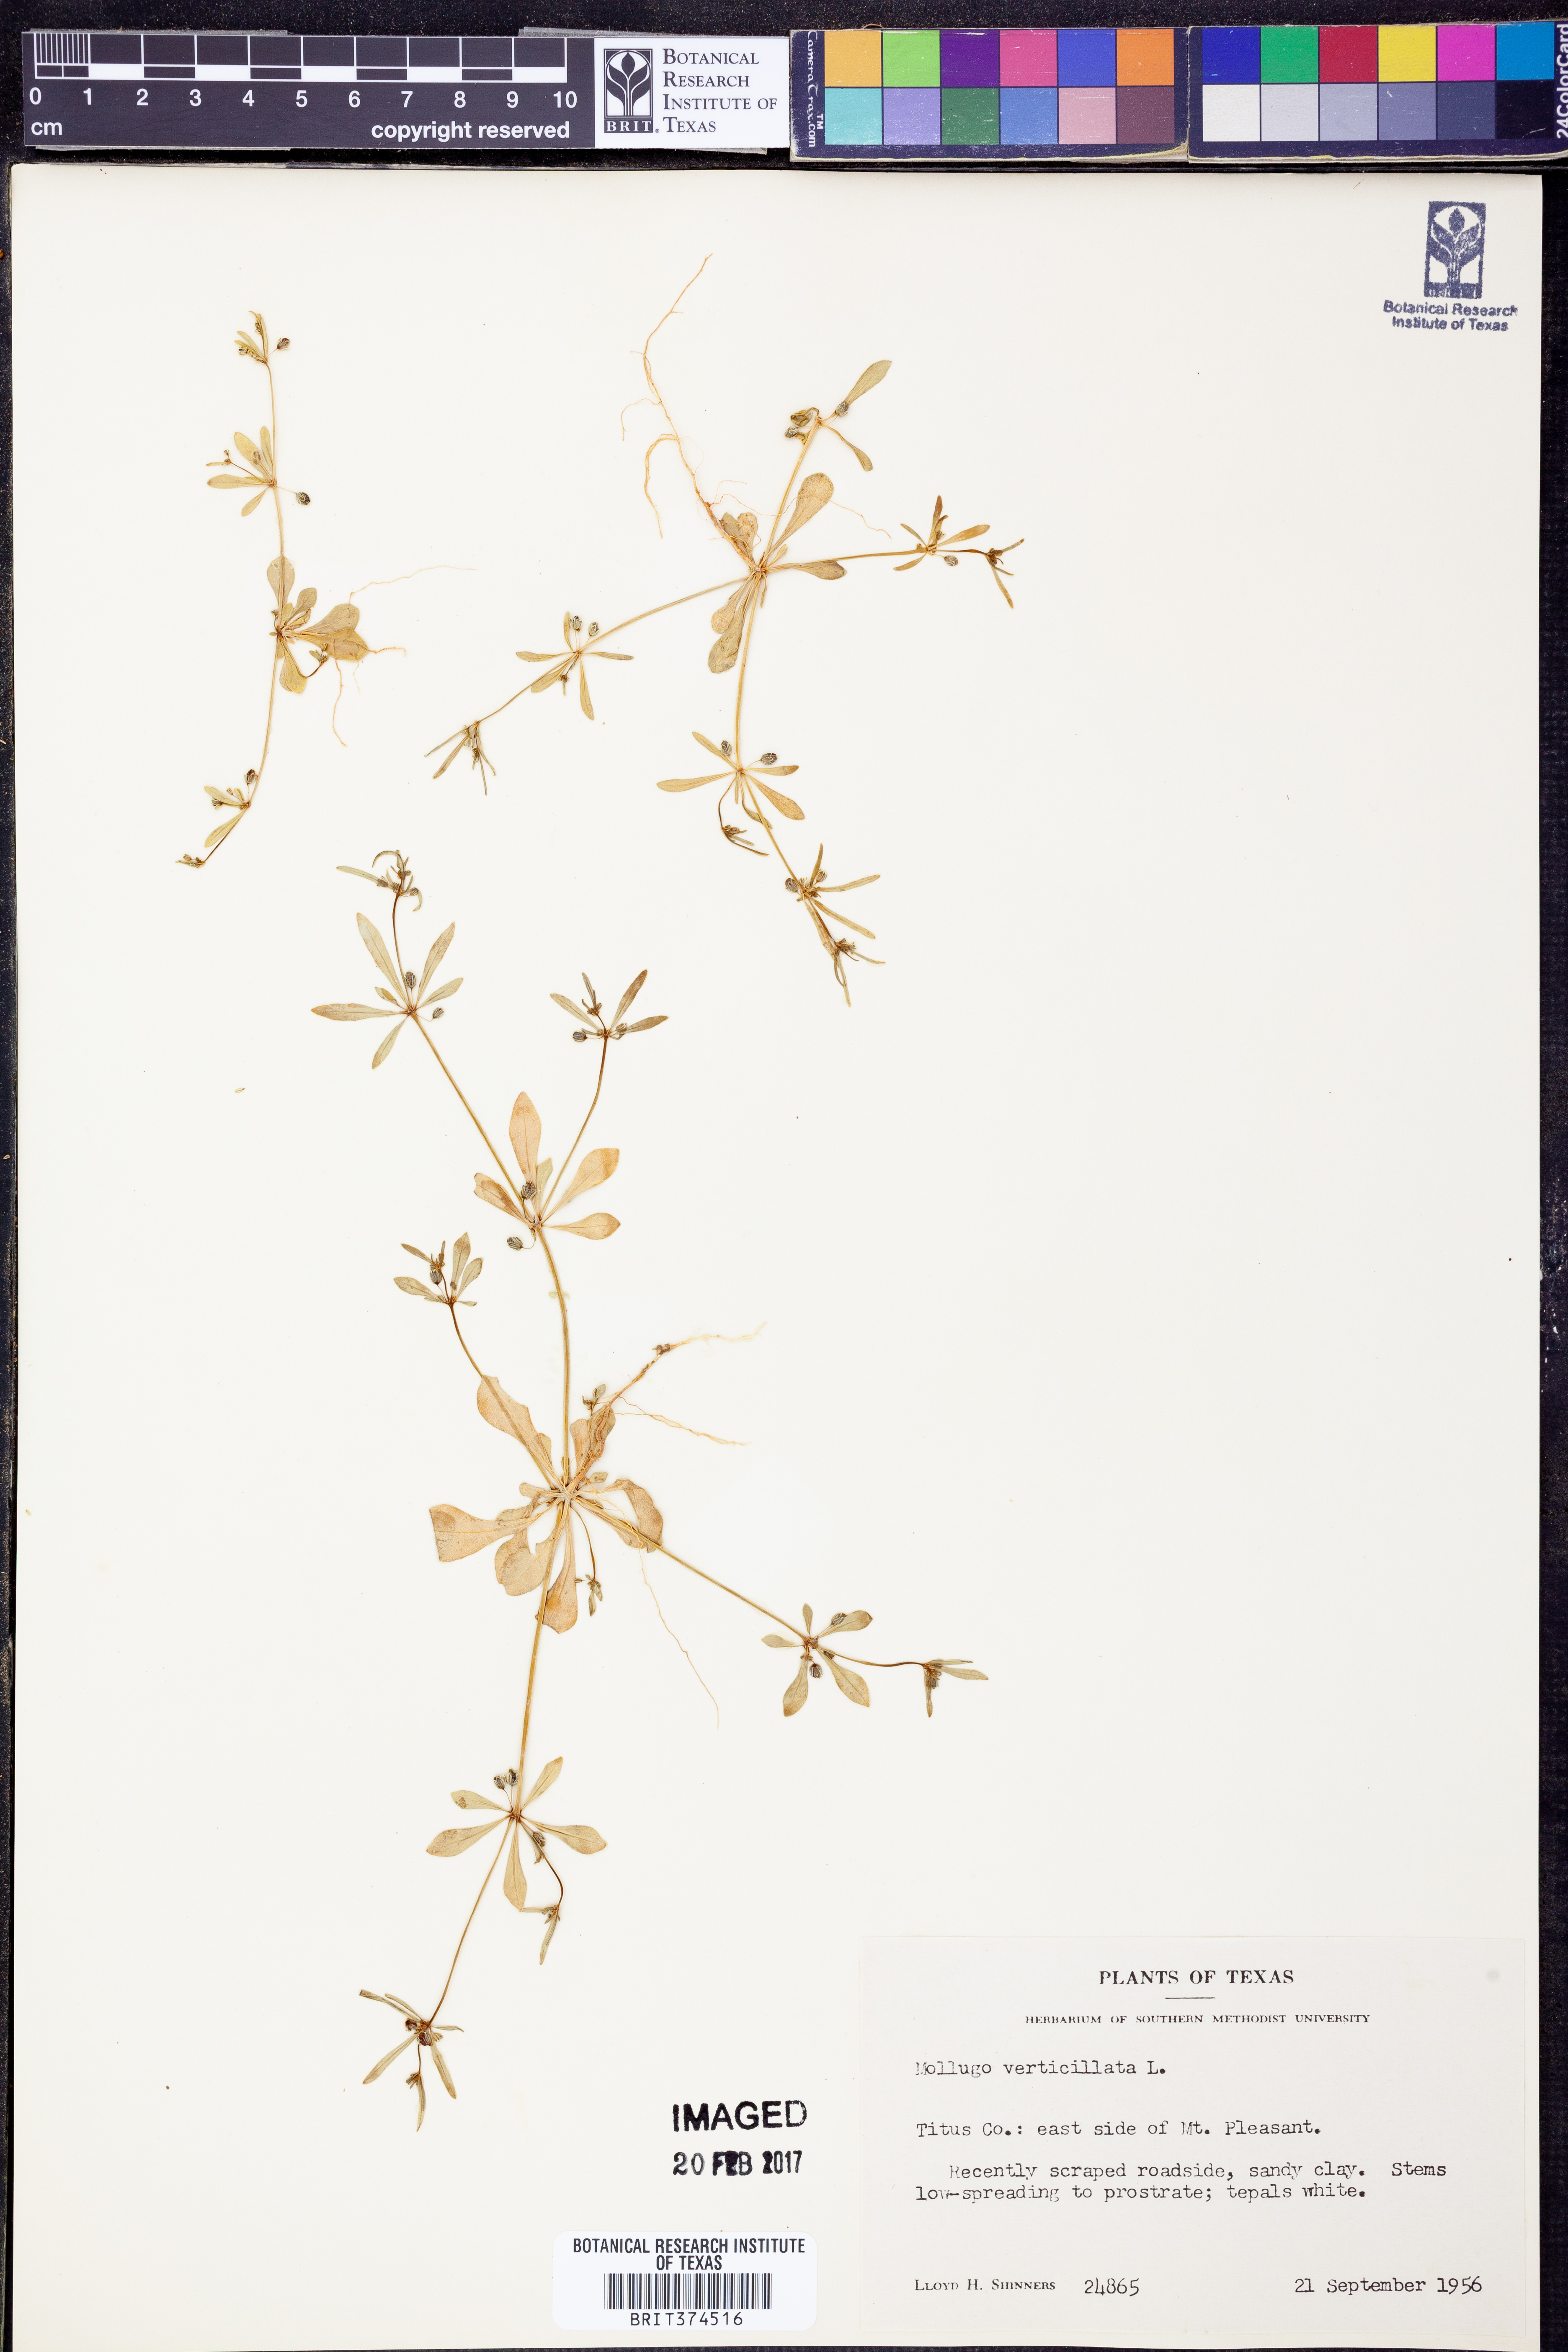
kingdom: Plantae
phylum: Tracheophyta
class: Magnoliopsida
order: Caryophyllales
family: Molluginaceae
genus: Mollugo
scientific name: Mollugo verticillata
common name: Green carpetweed
